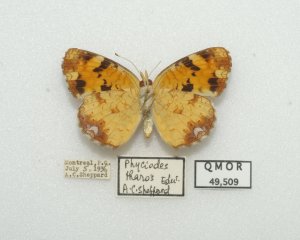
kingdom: Animalia
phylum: Arthropoda
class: Insecta
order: Lepidoptera
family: Nymphalidae
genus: Phyciodes
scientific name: Phyciodes tharos
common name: Northern Crescent
